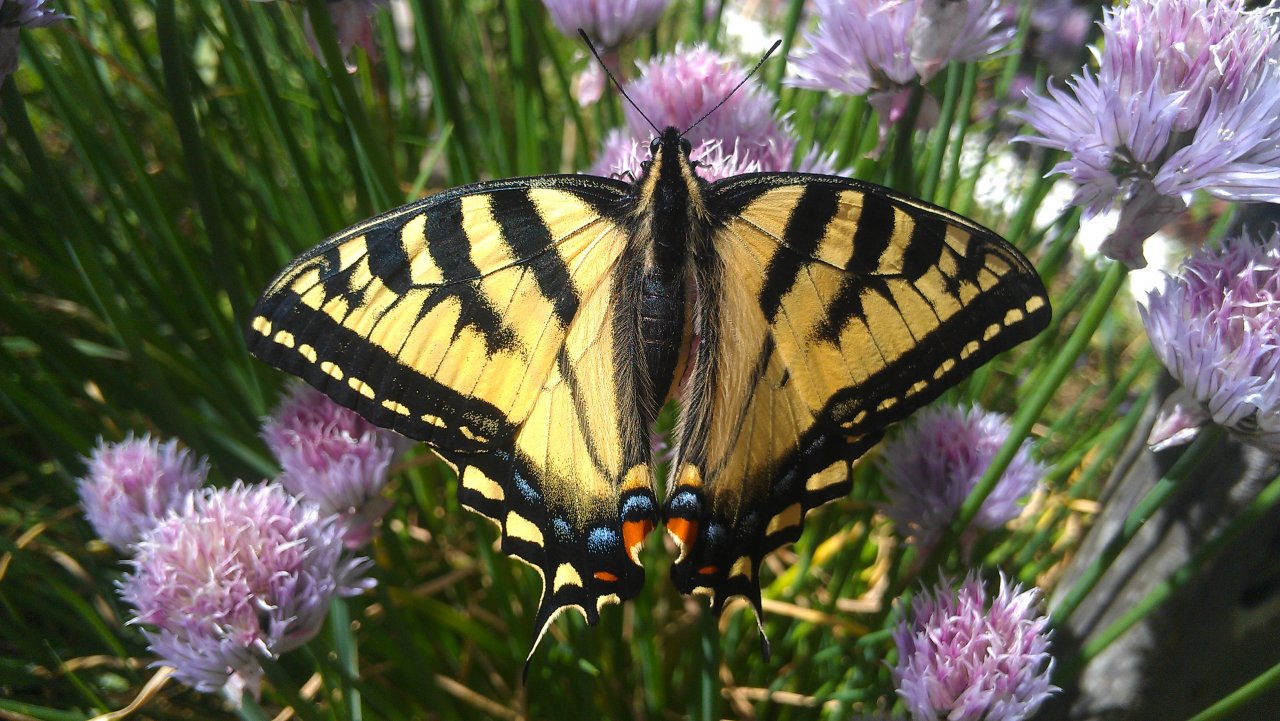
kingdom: Animalia
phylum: Arthropoda
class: Insecta
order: Lepidoptera
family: Papilionidae
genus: Pterourus
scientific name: Pterourus canadensis
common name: Canadian Tiger Swallowtail
